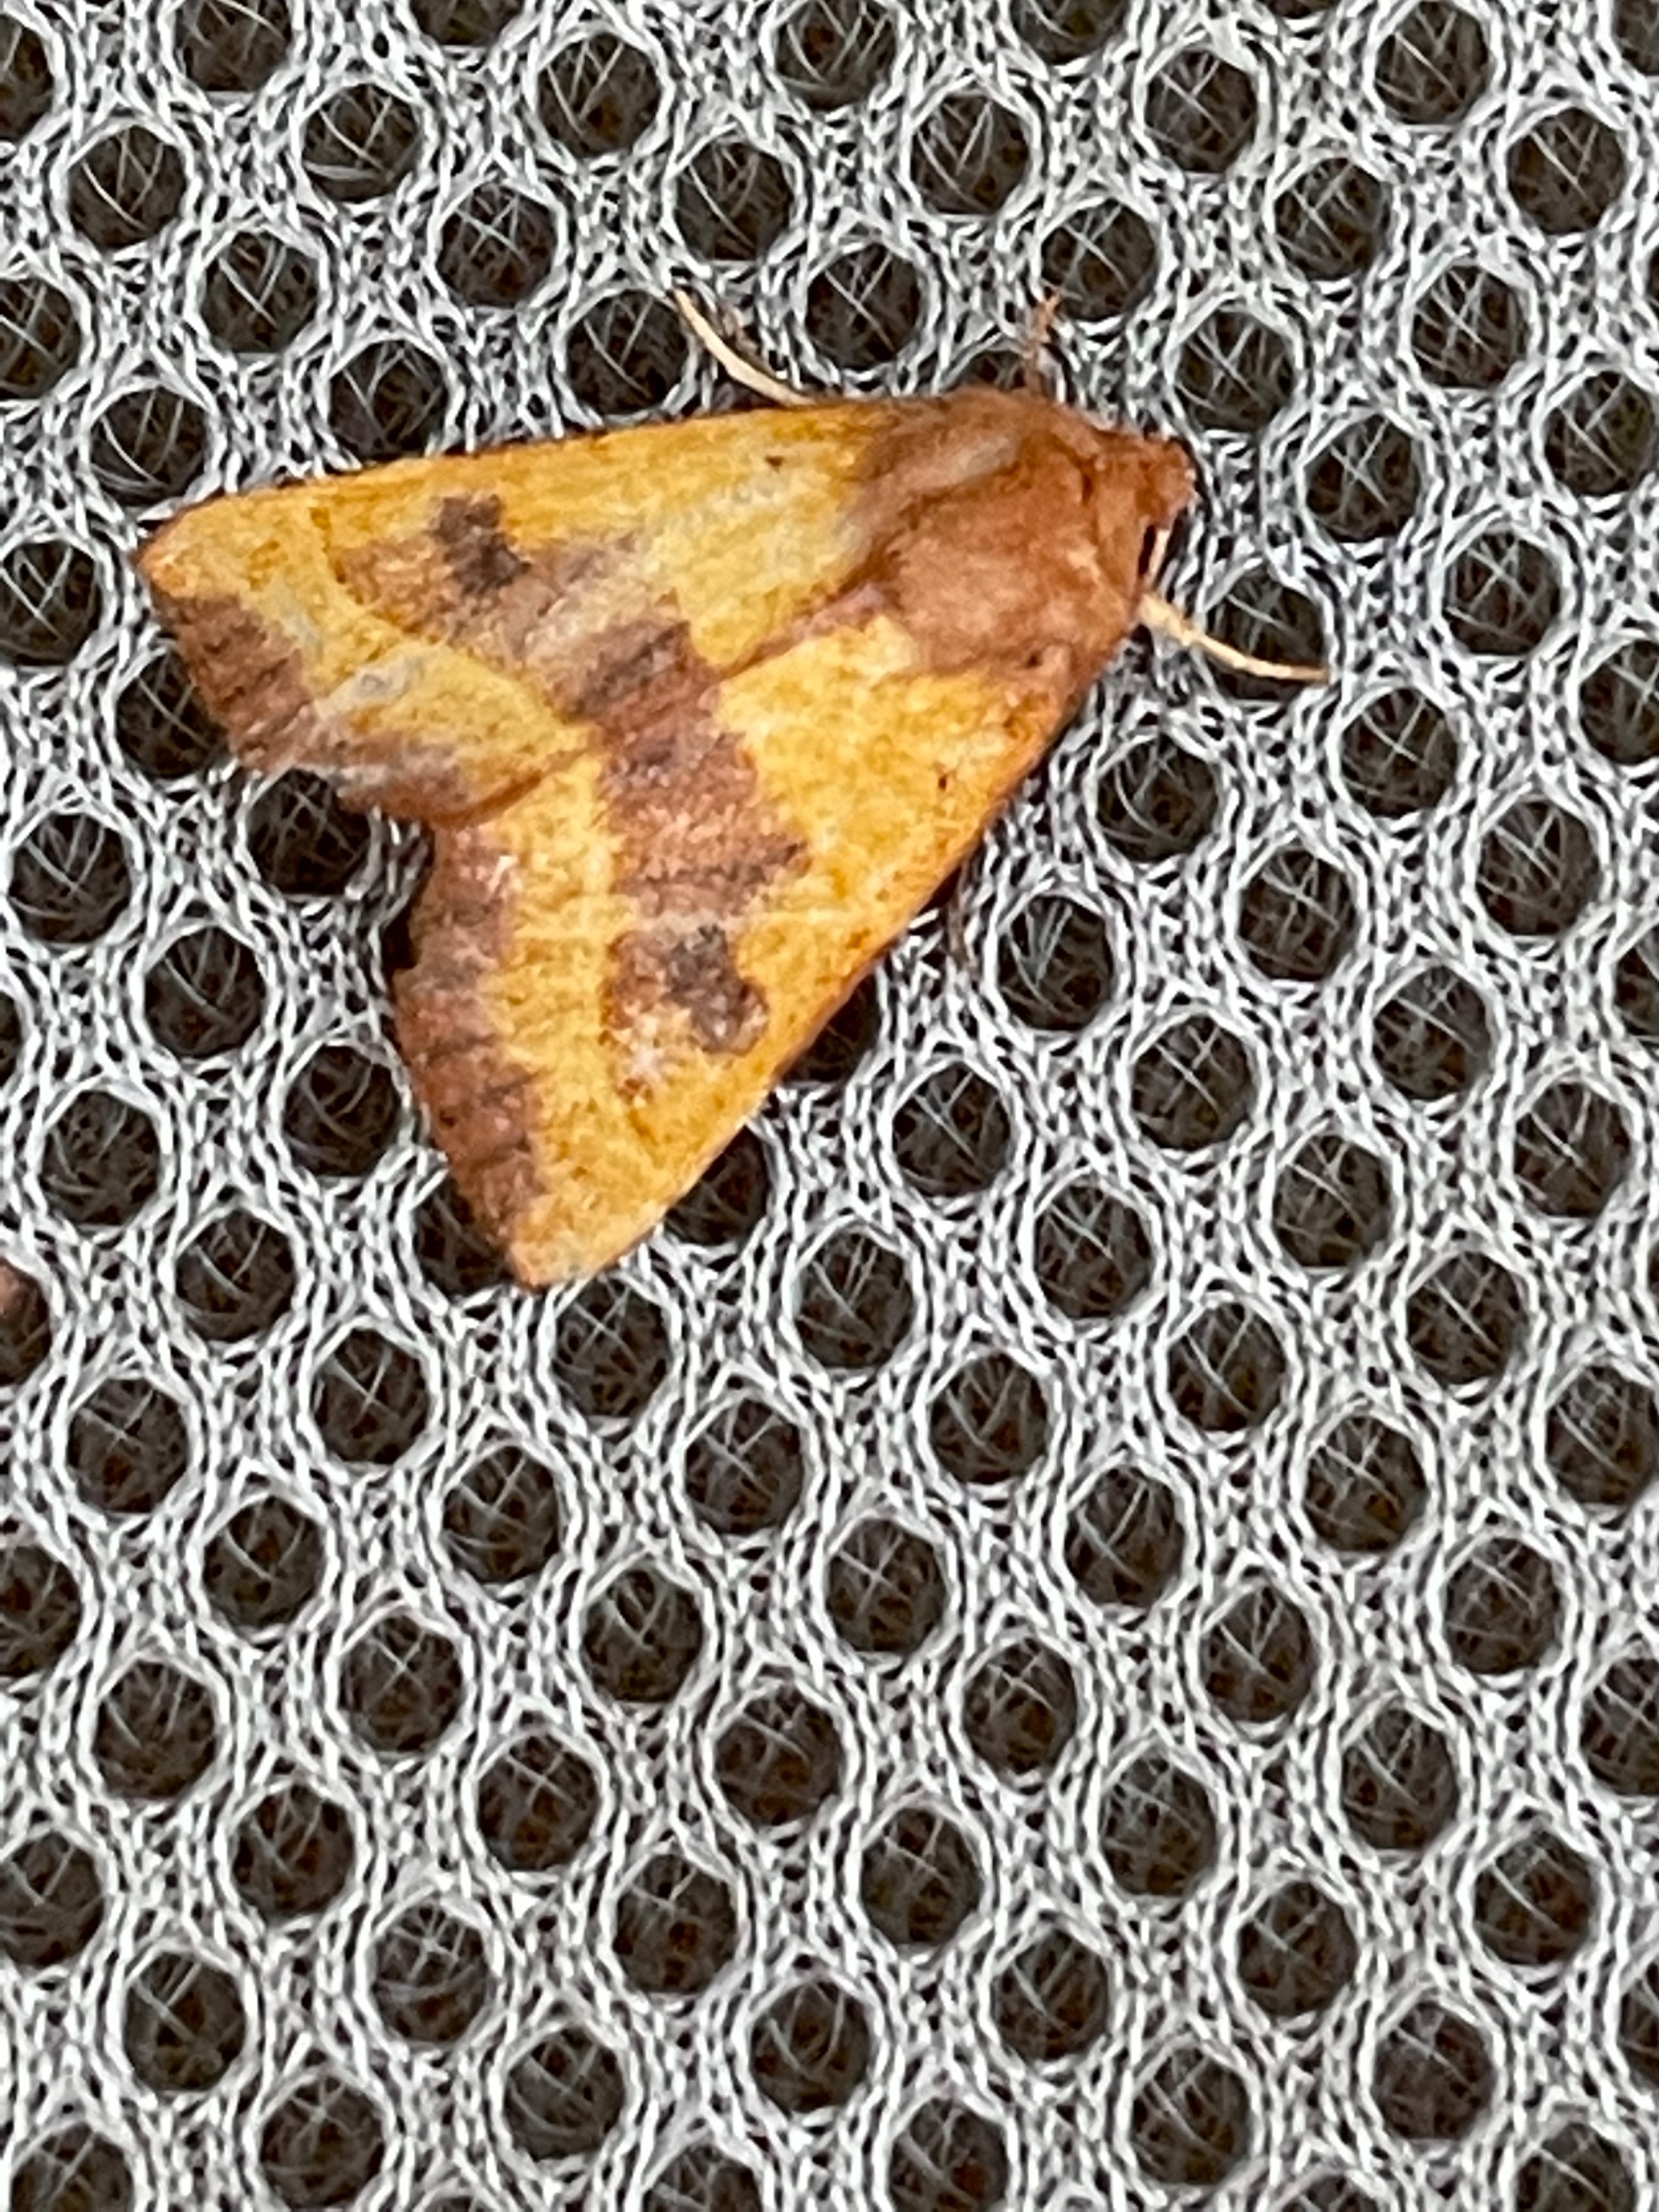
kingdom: Animalia
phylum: Arthropoda
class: Insecta
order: Lepidoptera
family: Noctuidae
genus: Atethmia
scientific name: Atethmia centrago
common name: Aske-septemberugle
